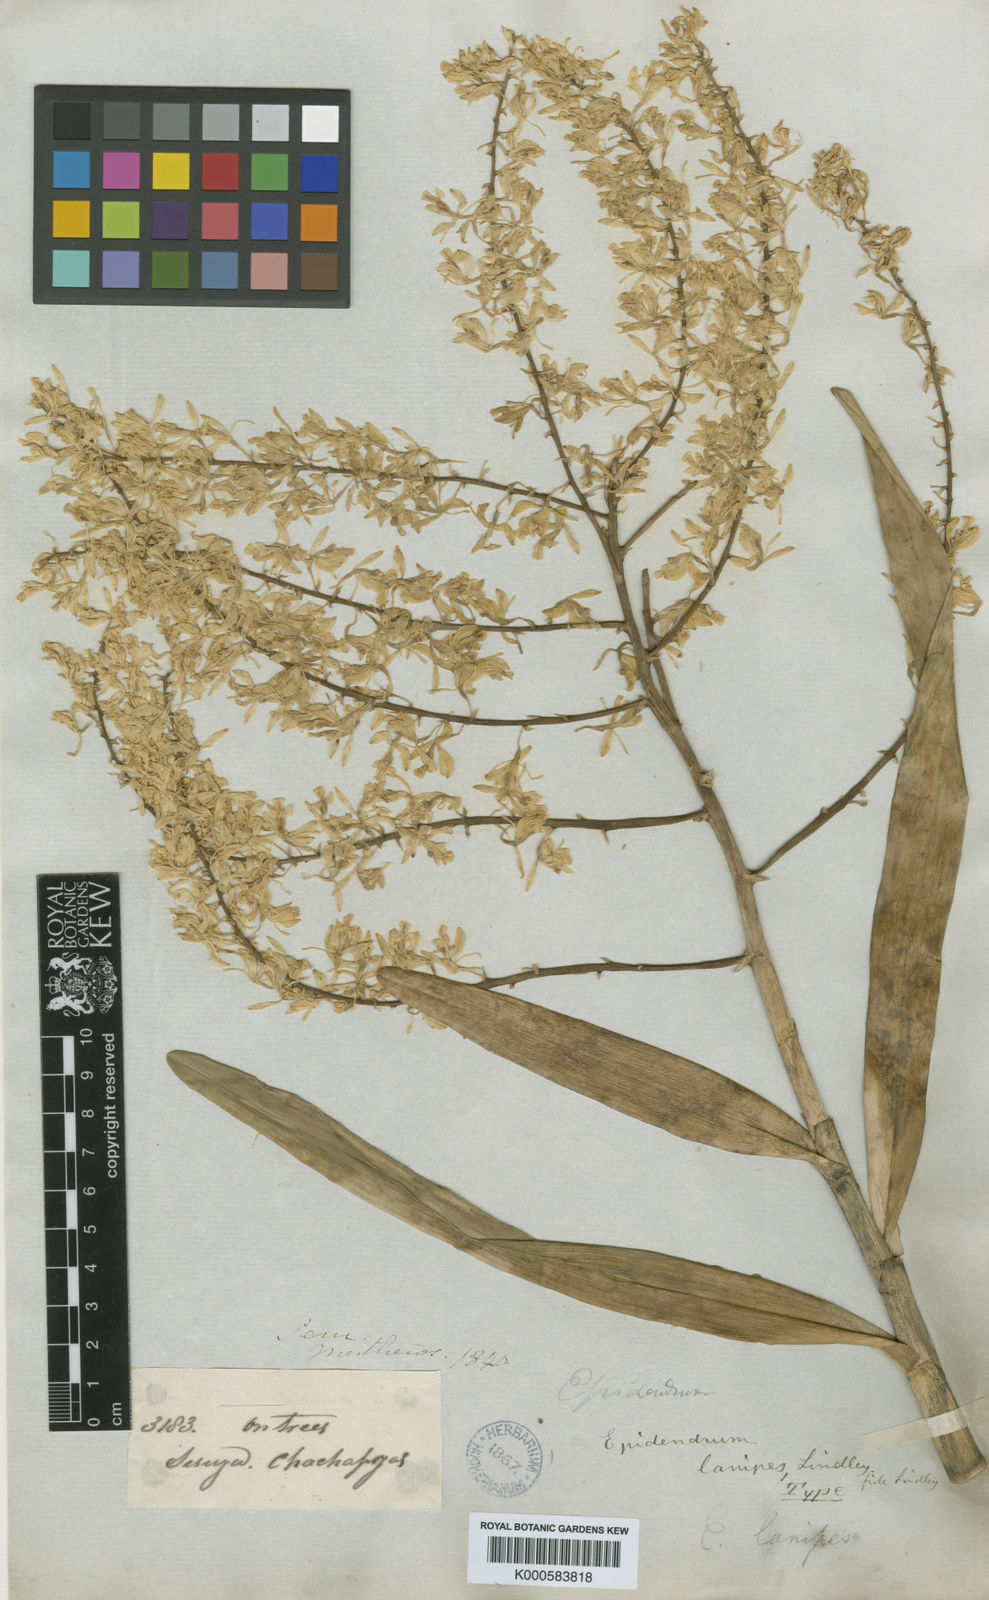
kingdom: Plantae
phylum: Tracheophyta
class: Liliopsida
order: Asparagales
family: Orchidaceae
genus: Epidendrum
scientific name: Epidendrum lanipes
